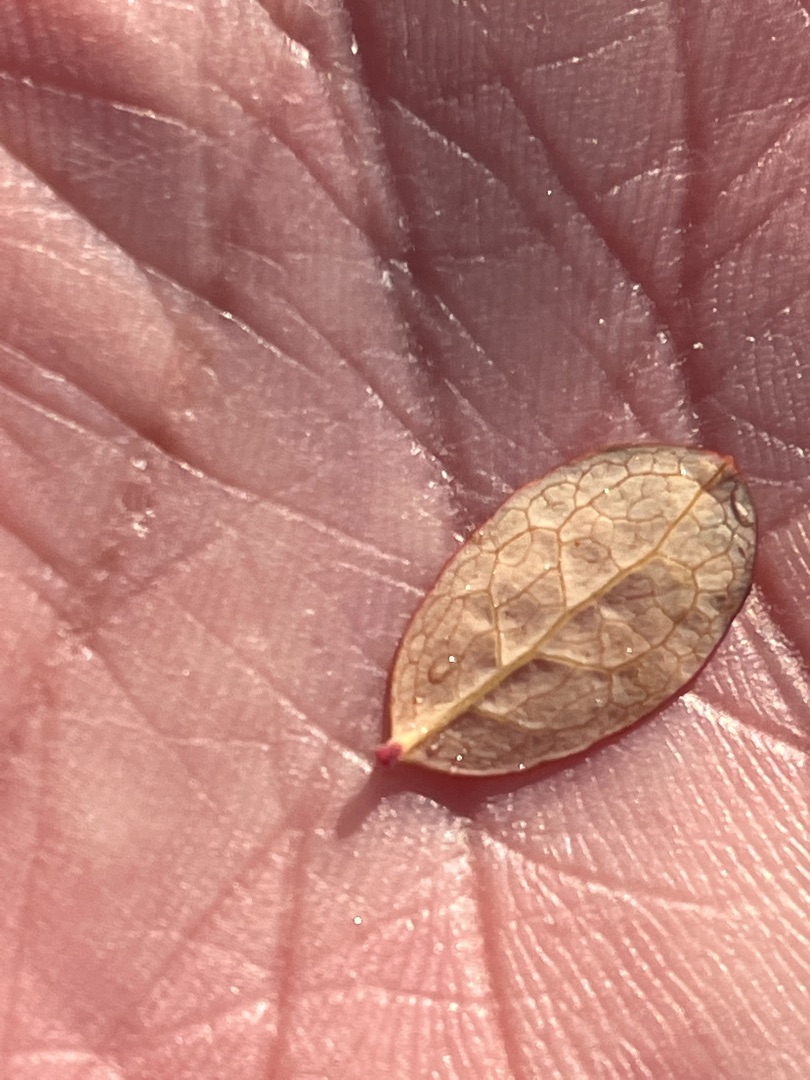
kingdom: Plantae
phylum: Tracheophyta
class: Magnoliopsida
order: Ericales
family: Ericaceae
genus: Vaccinium
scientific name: Vaccinium uliginosum
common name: Mose-bølle
